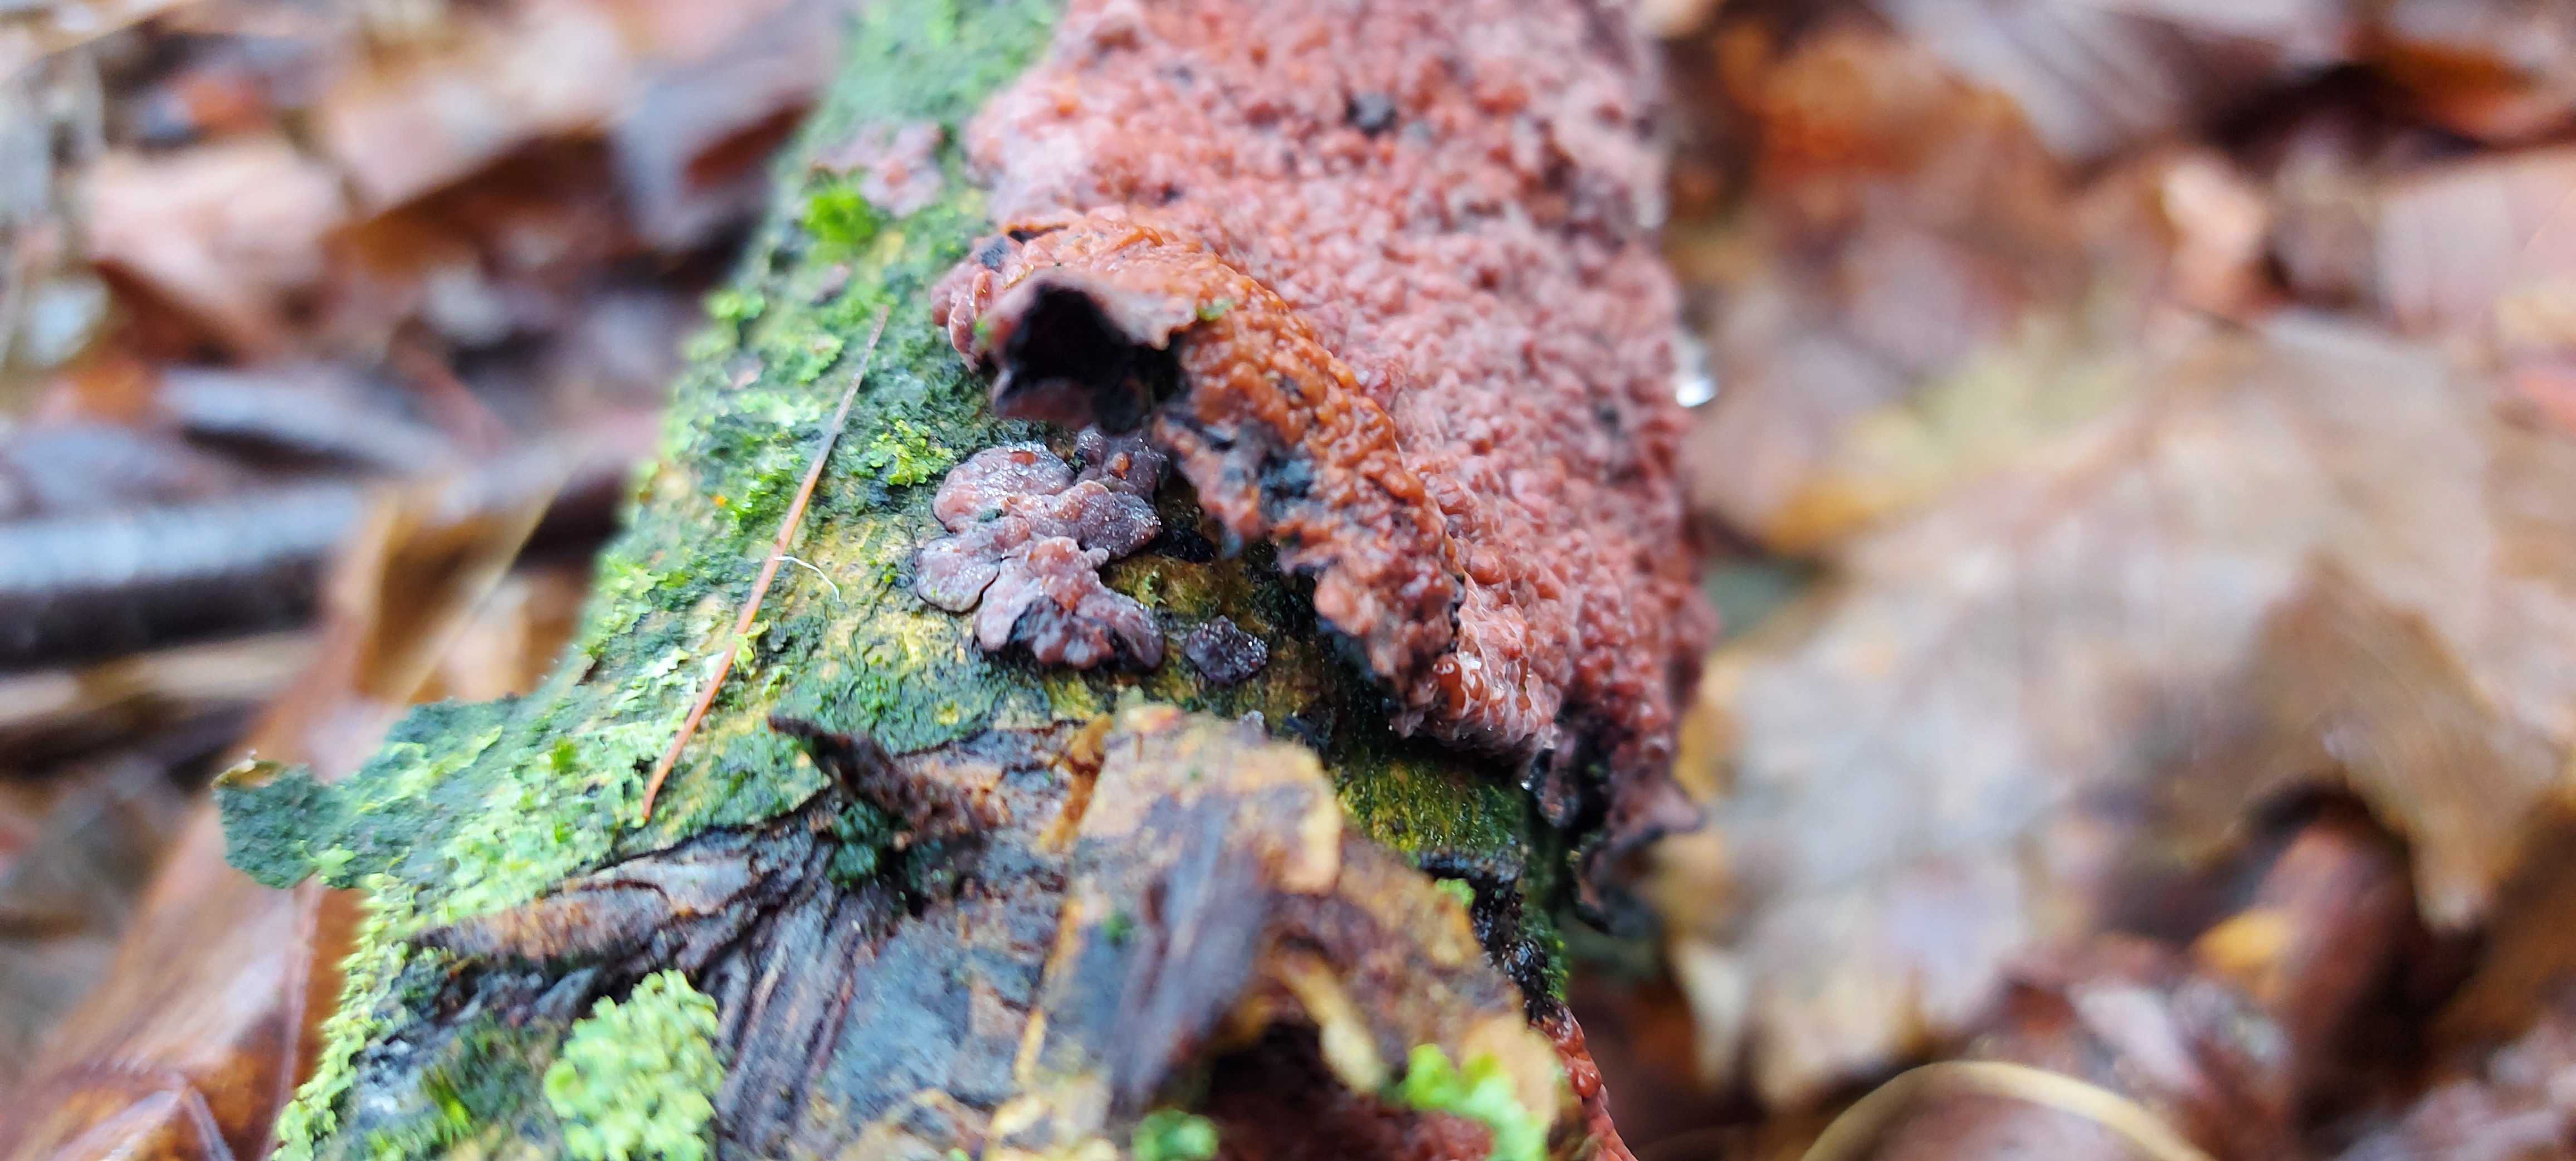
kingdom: Fungi
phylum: Basidiomycota
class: Agaricomycetes
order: Russulales
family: Peniophoraceae
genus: Peniophora
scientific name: Peniophora quercina
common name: ege-voksskind
